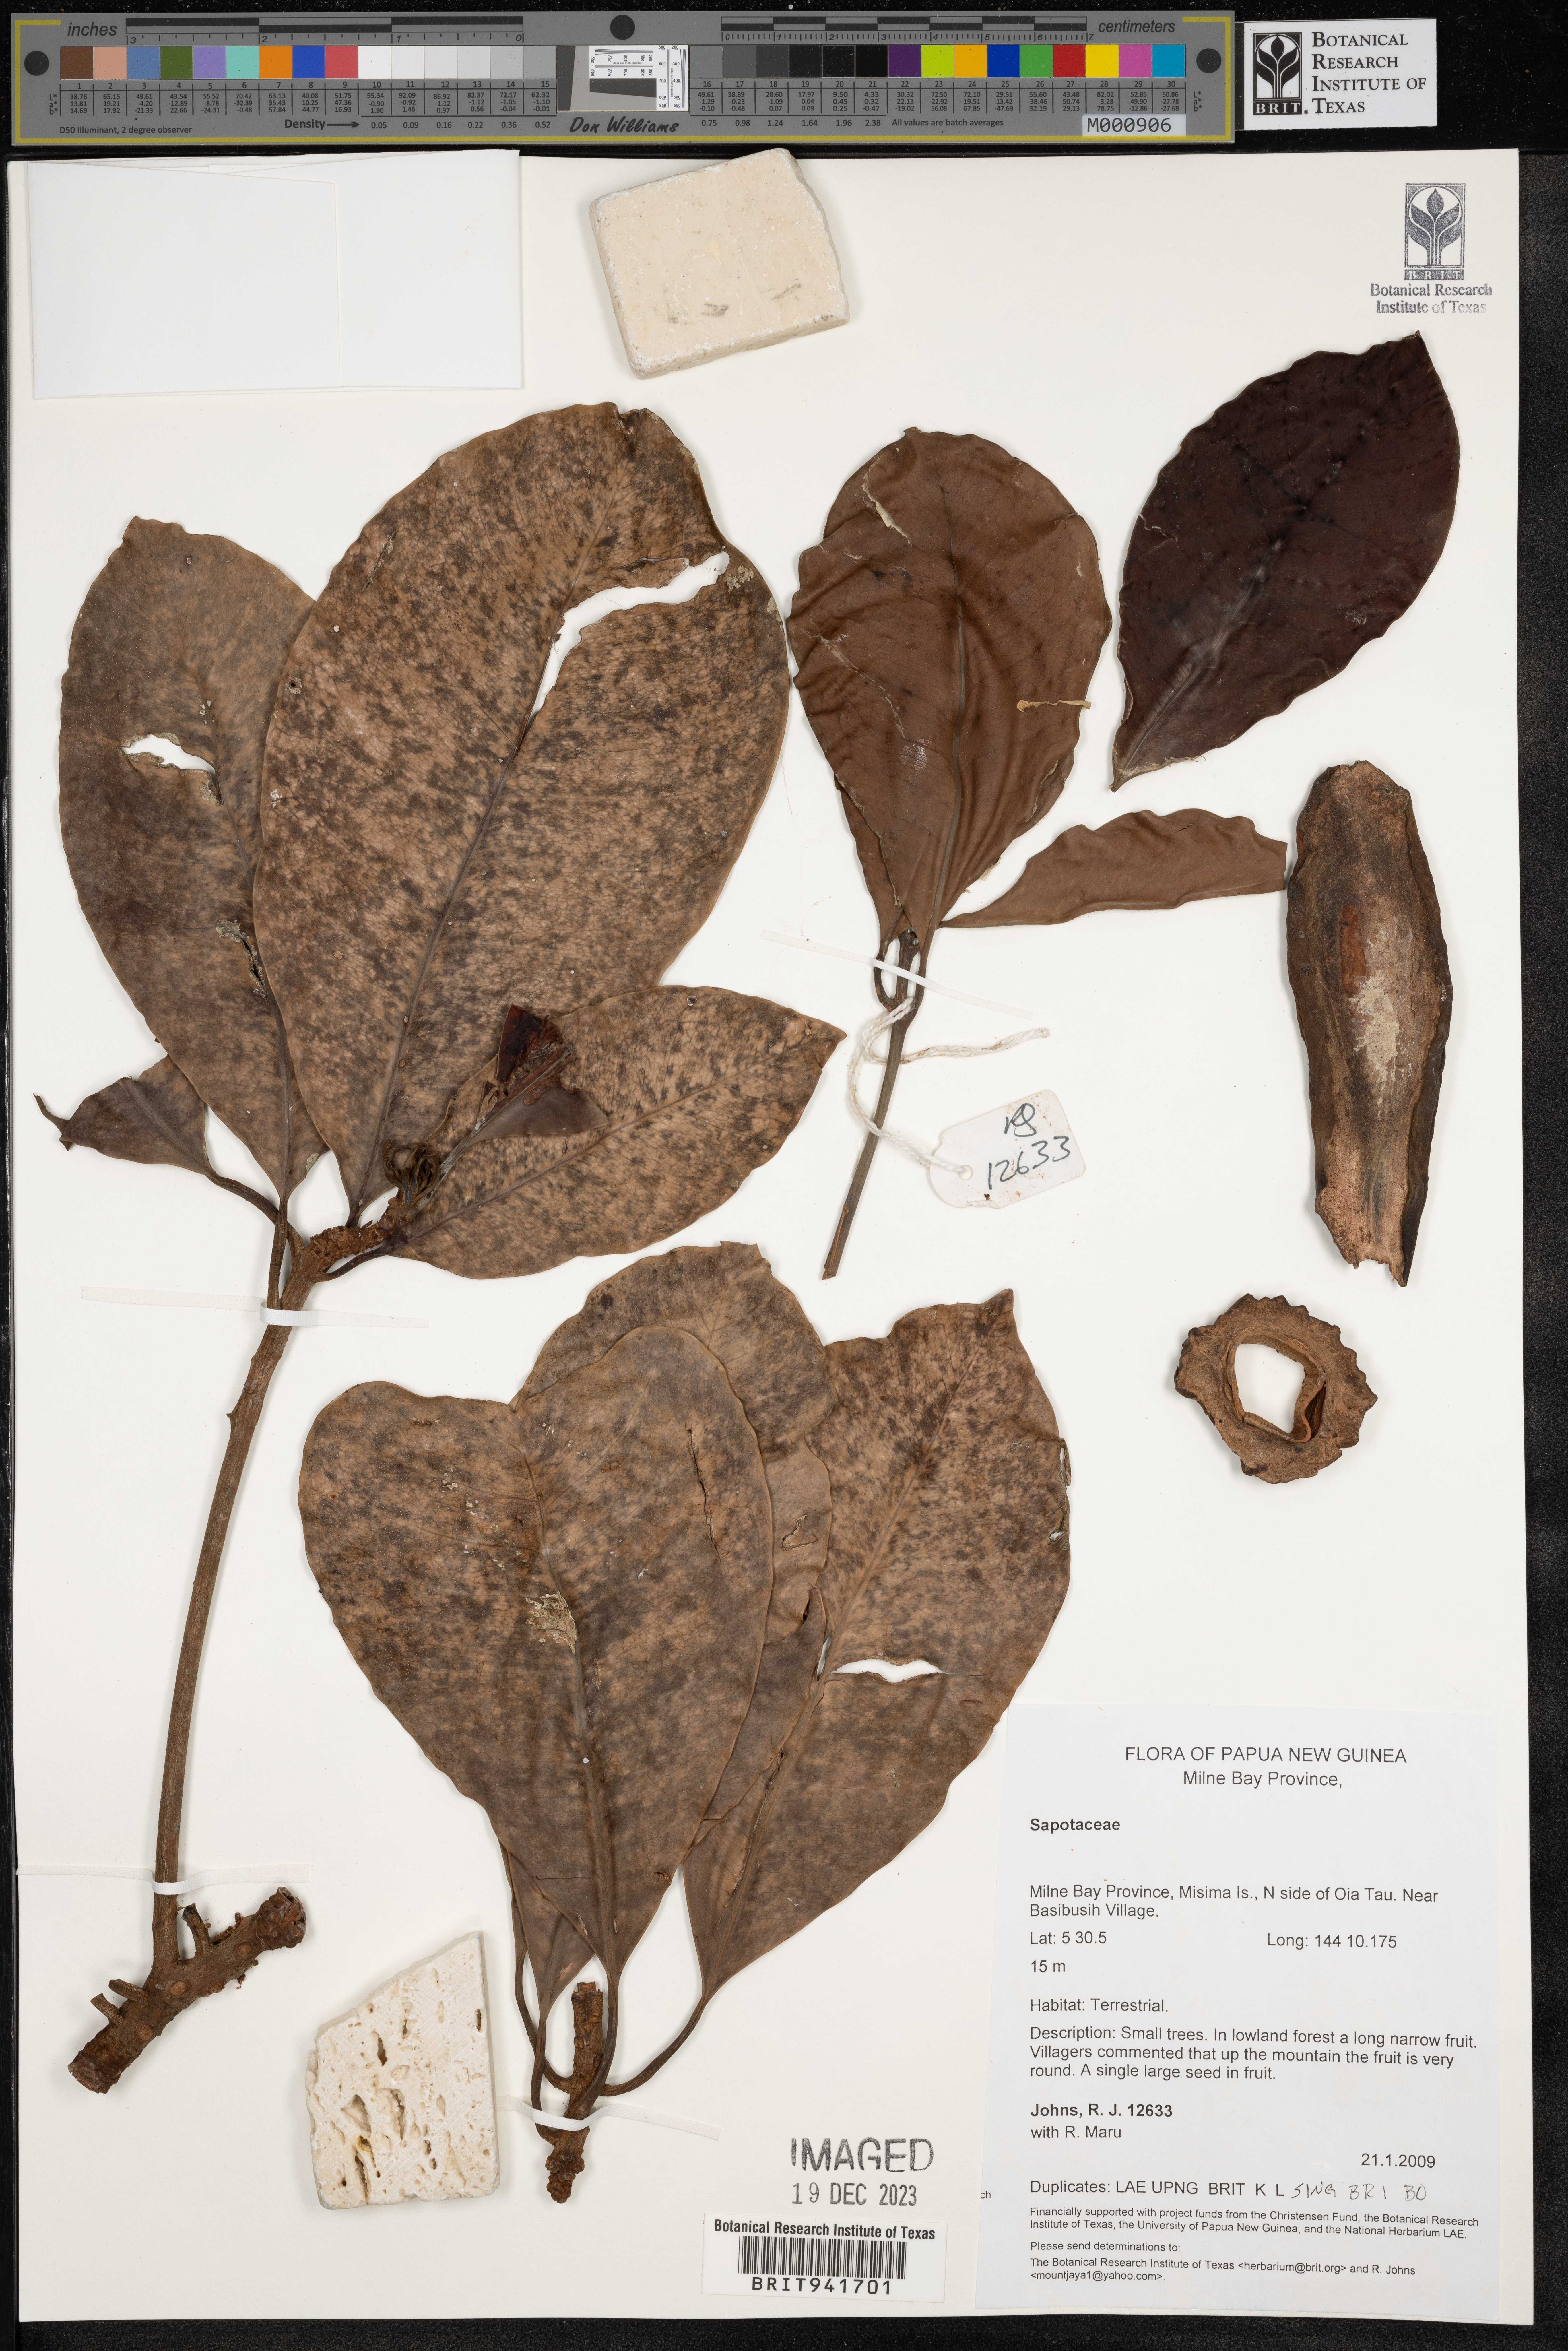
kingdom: Plantae
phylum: Tracheophyta
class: Magnoliopsida
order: Ericales
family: Sapotaceae
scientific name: Sapotaceae
